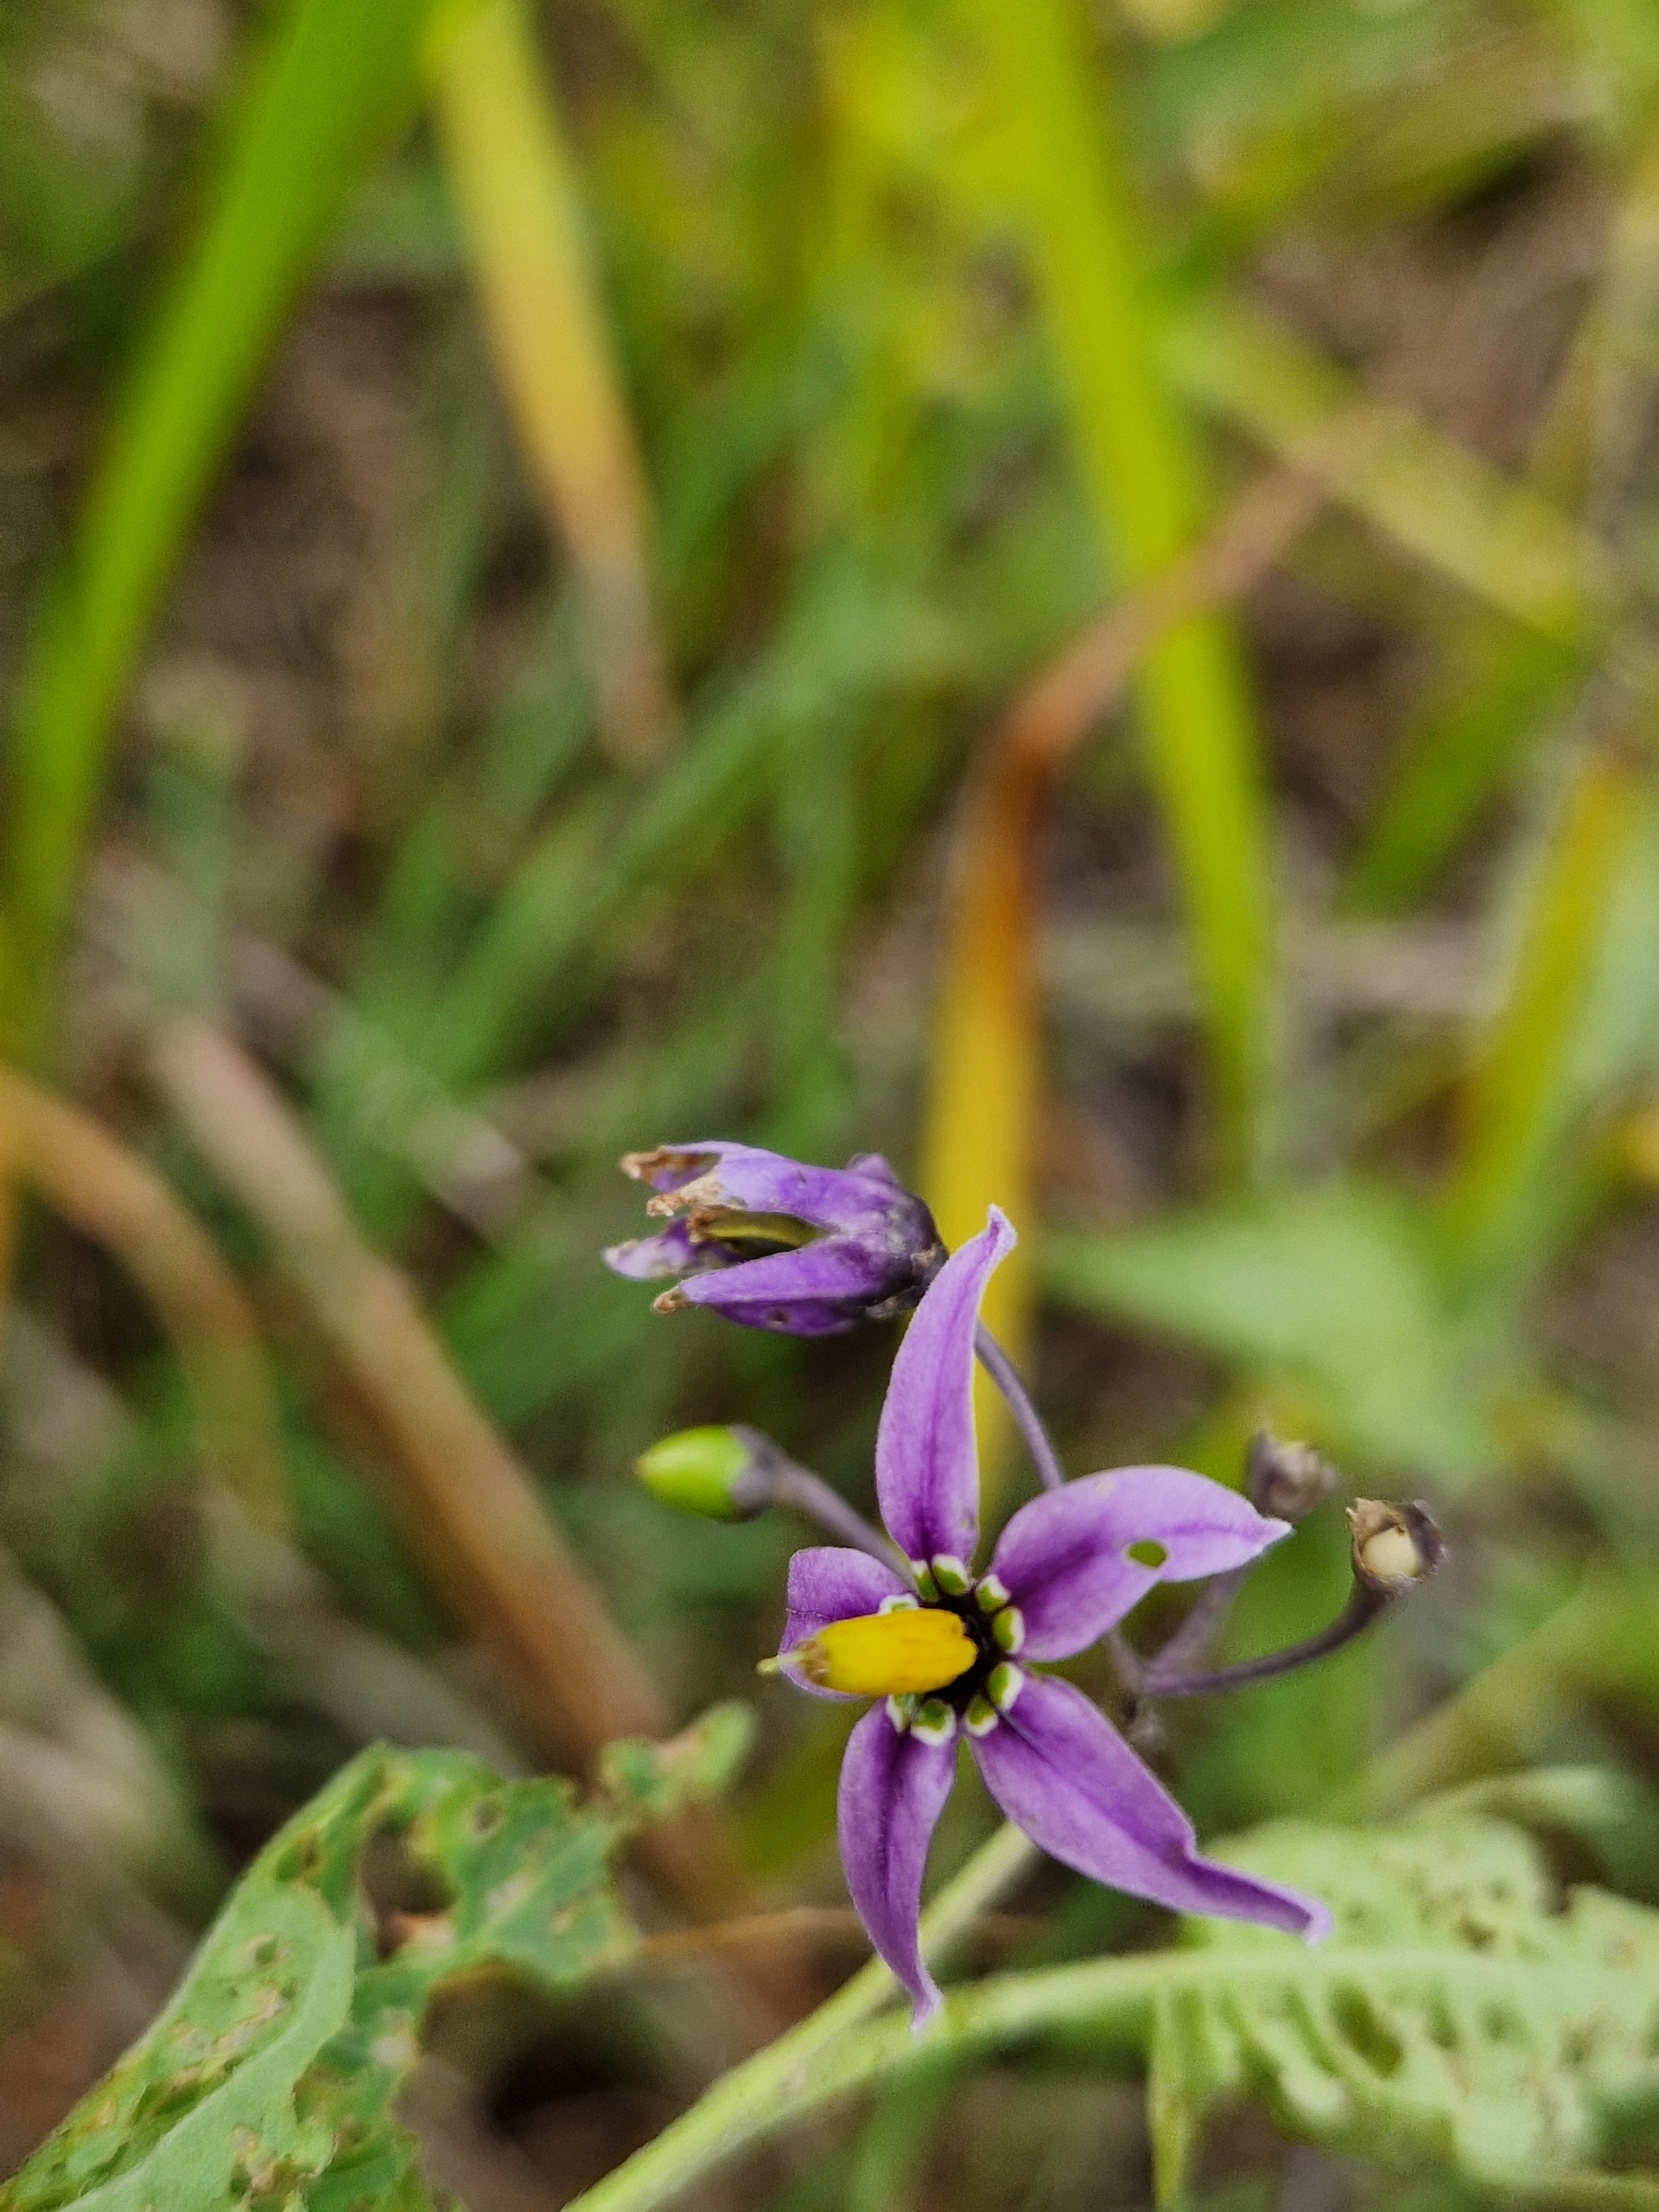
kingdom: Plantae
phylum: Tracheophyta
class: Magnoliopsida
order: Solanales
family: Solanaceae
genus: Solanum
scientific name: Solanum dulcamara
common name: Bittersød natskygge
